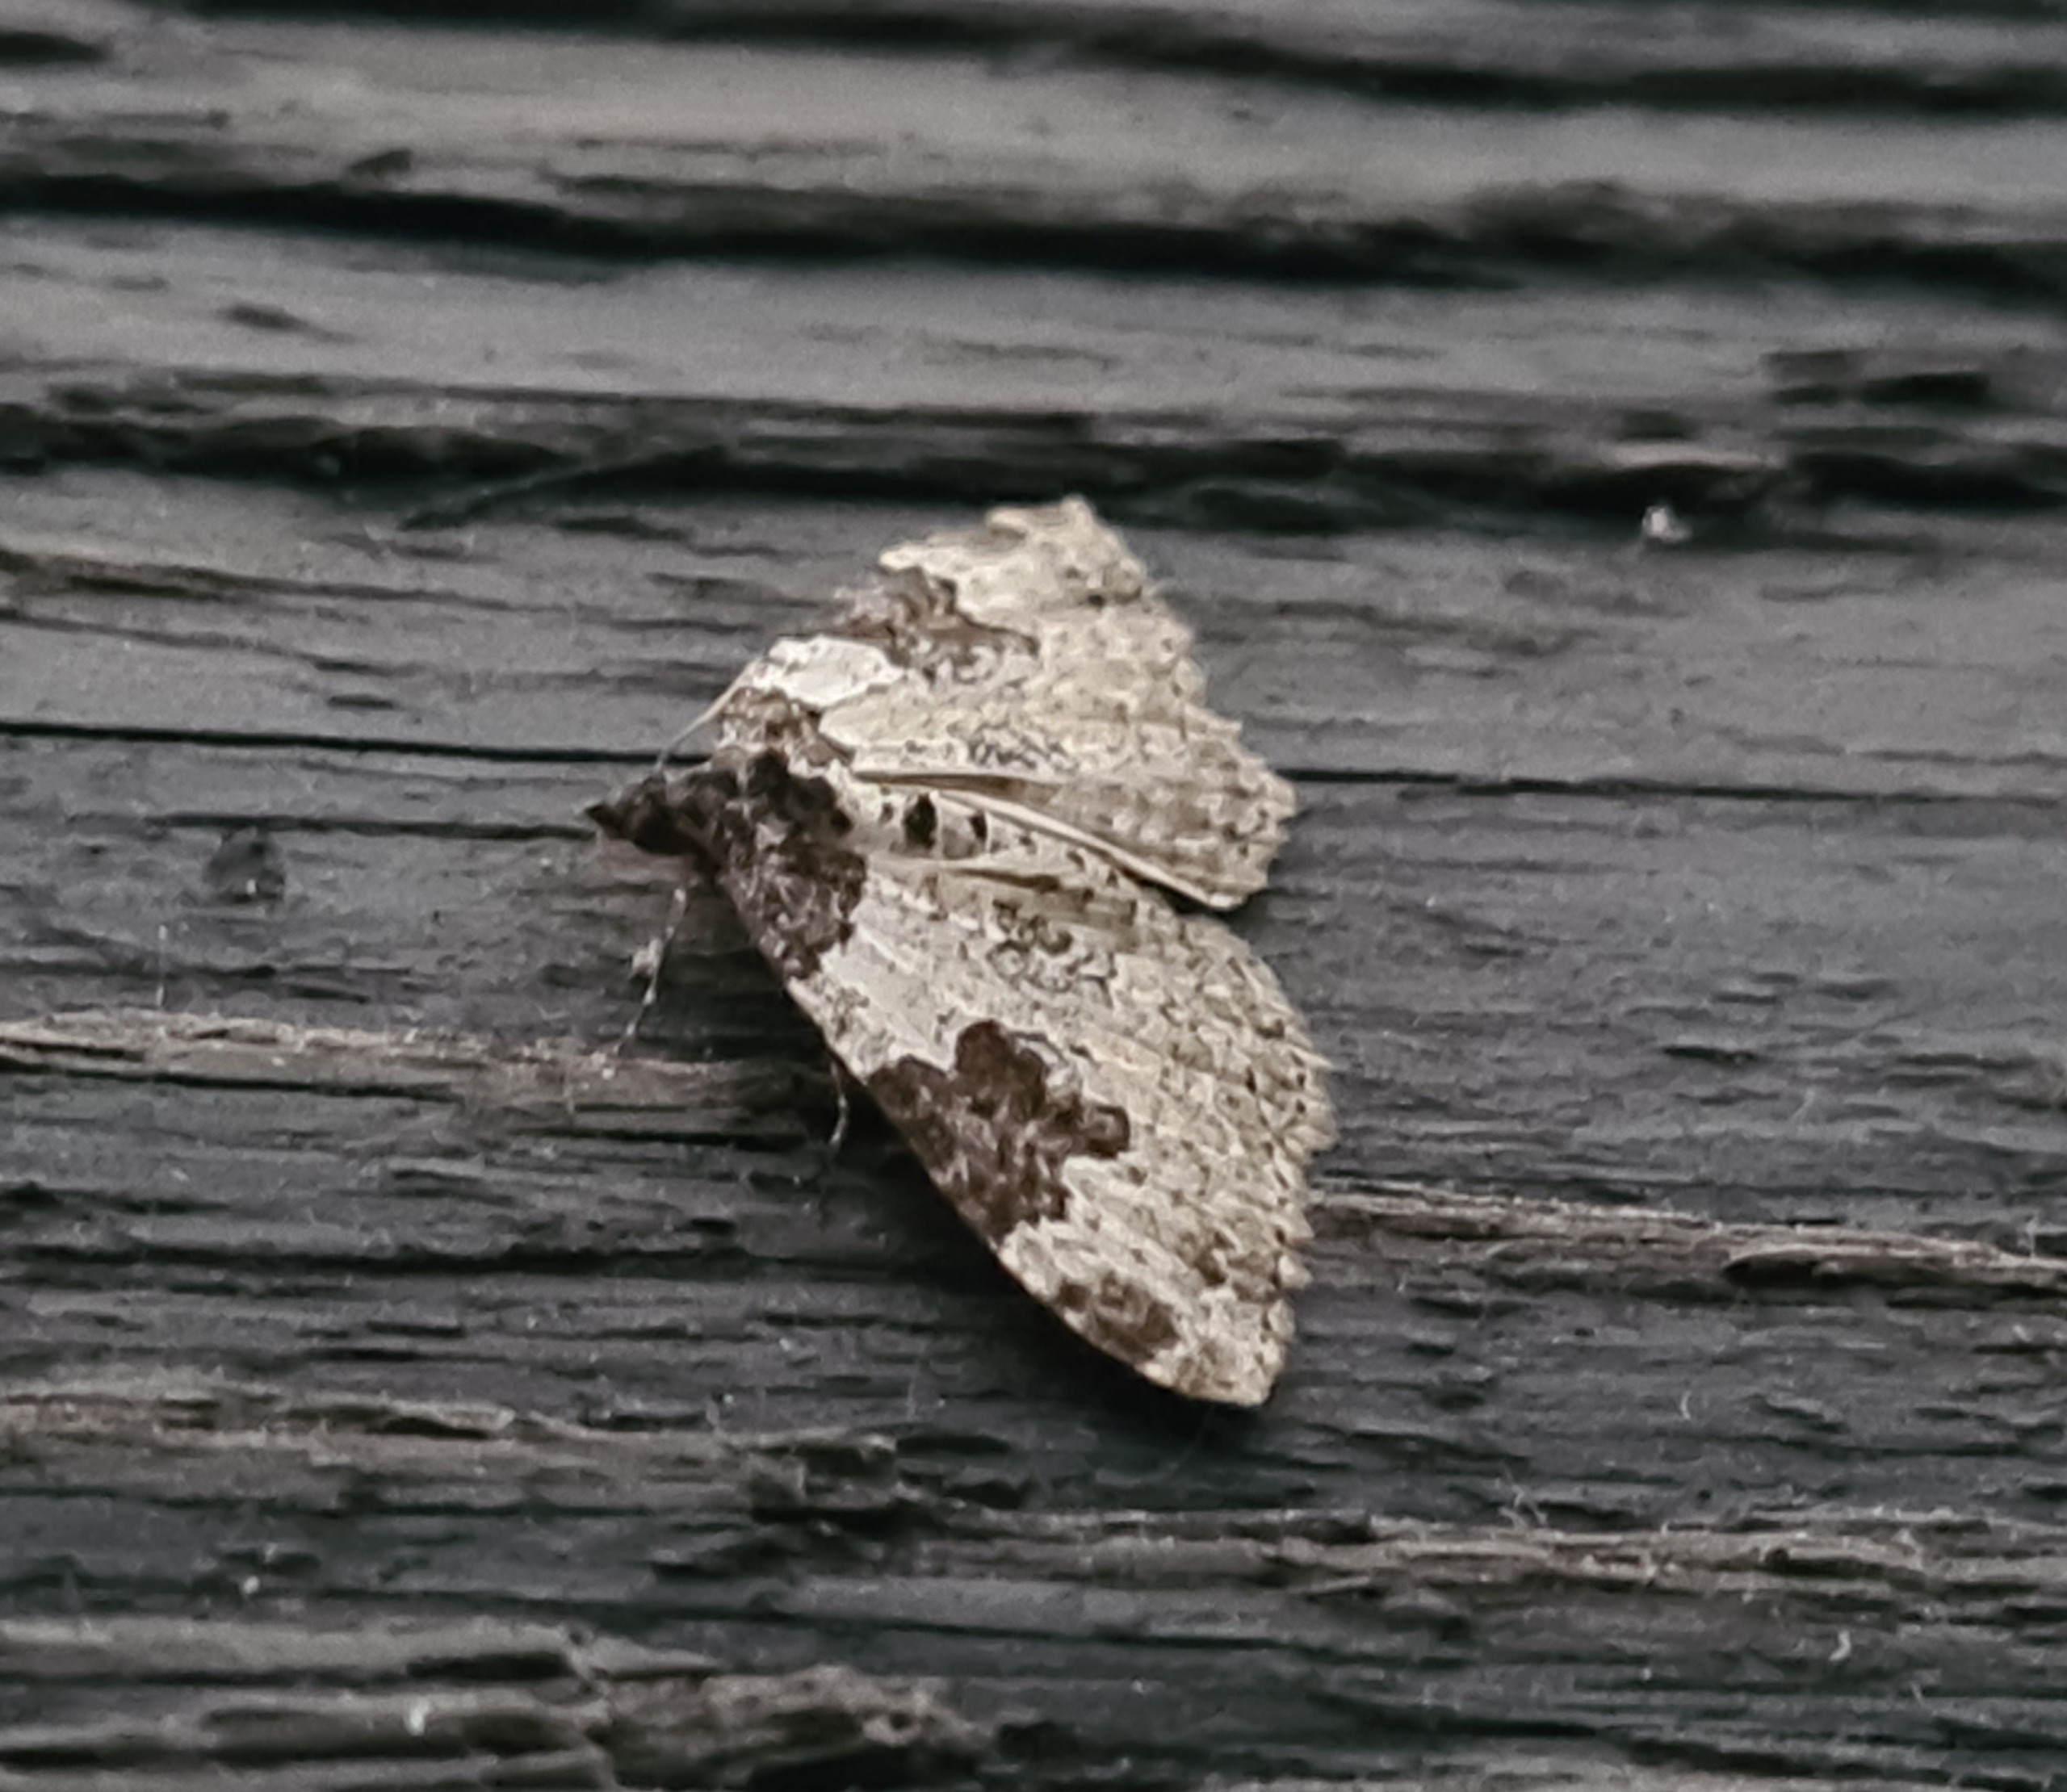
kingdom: Animalia
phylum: Arthropoda
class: Insecta
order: Lepidoptera
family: Geometridae
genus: Xanthorhoe
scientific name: Xanthorhoe fluctuata
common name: Sortbæltet bladmåler
